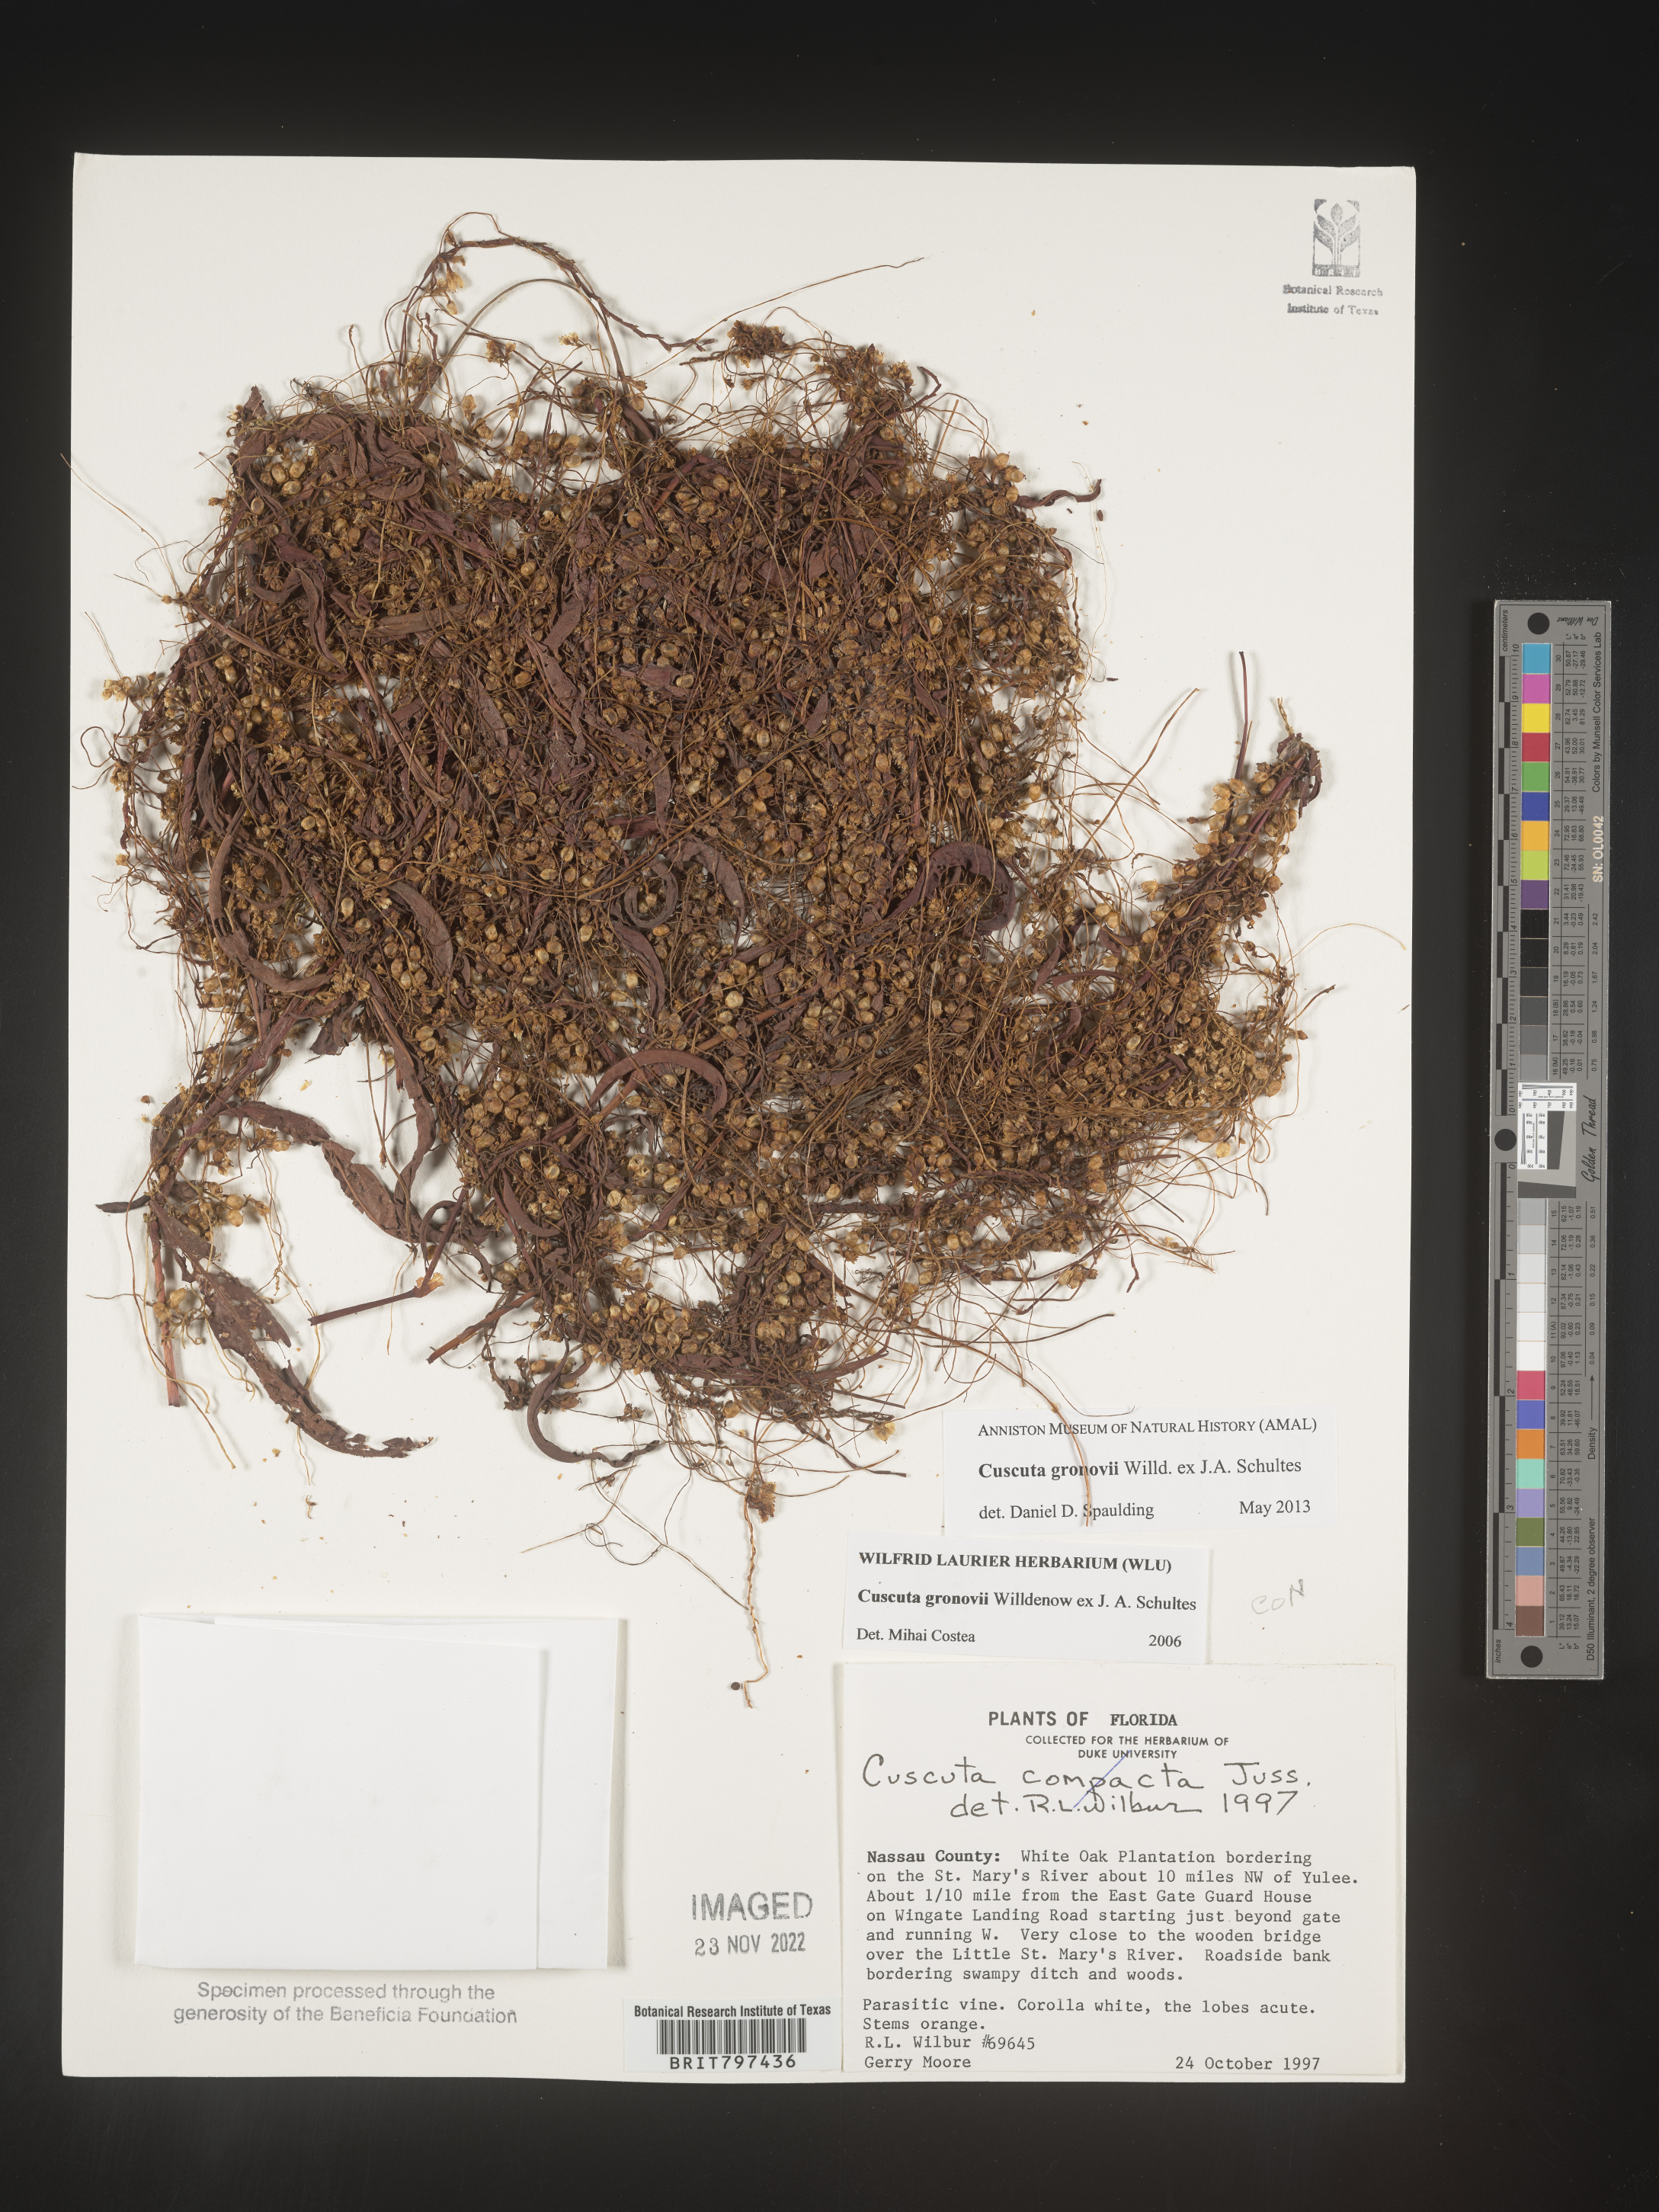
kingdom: Plantae
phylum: Tracheophyta
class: Magnoliopsida
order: Solanales
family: Convolvulaceae
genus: Cuscuta
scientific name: Cuscuta gronovii
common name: Common dodder
